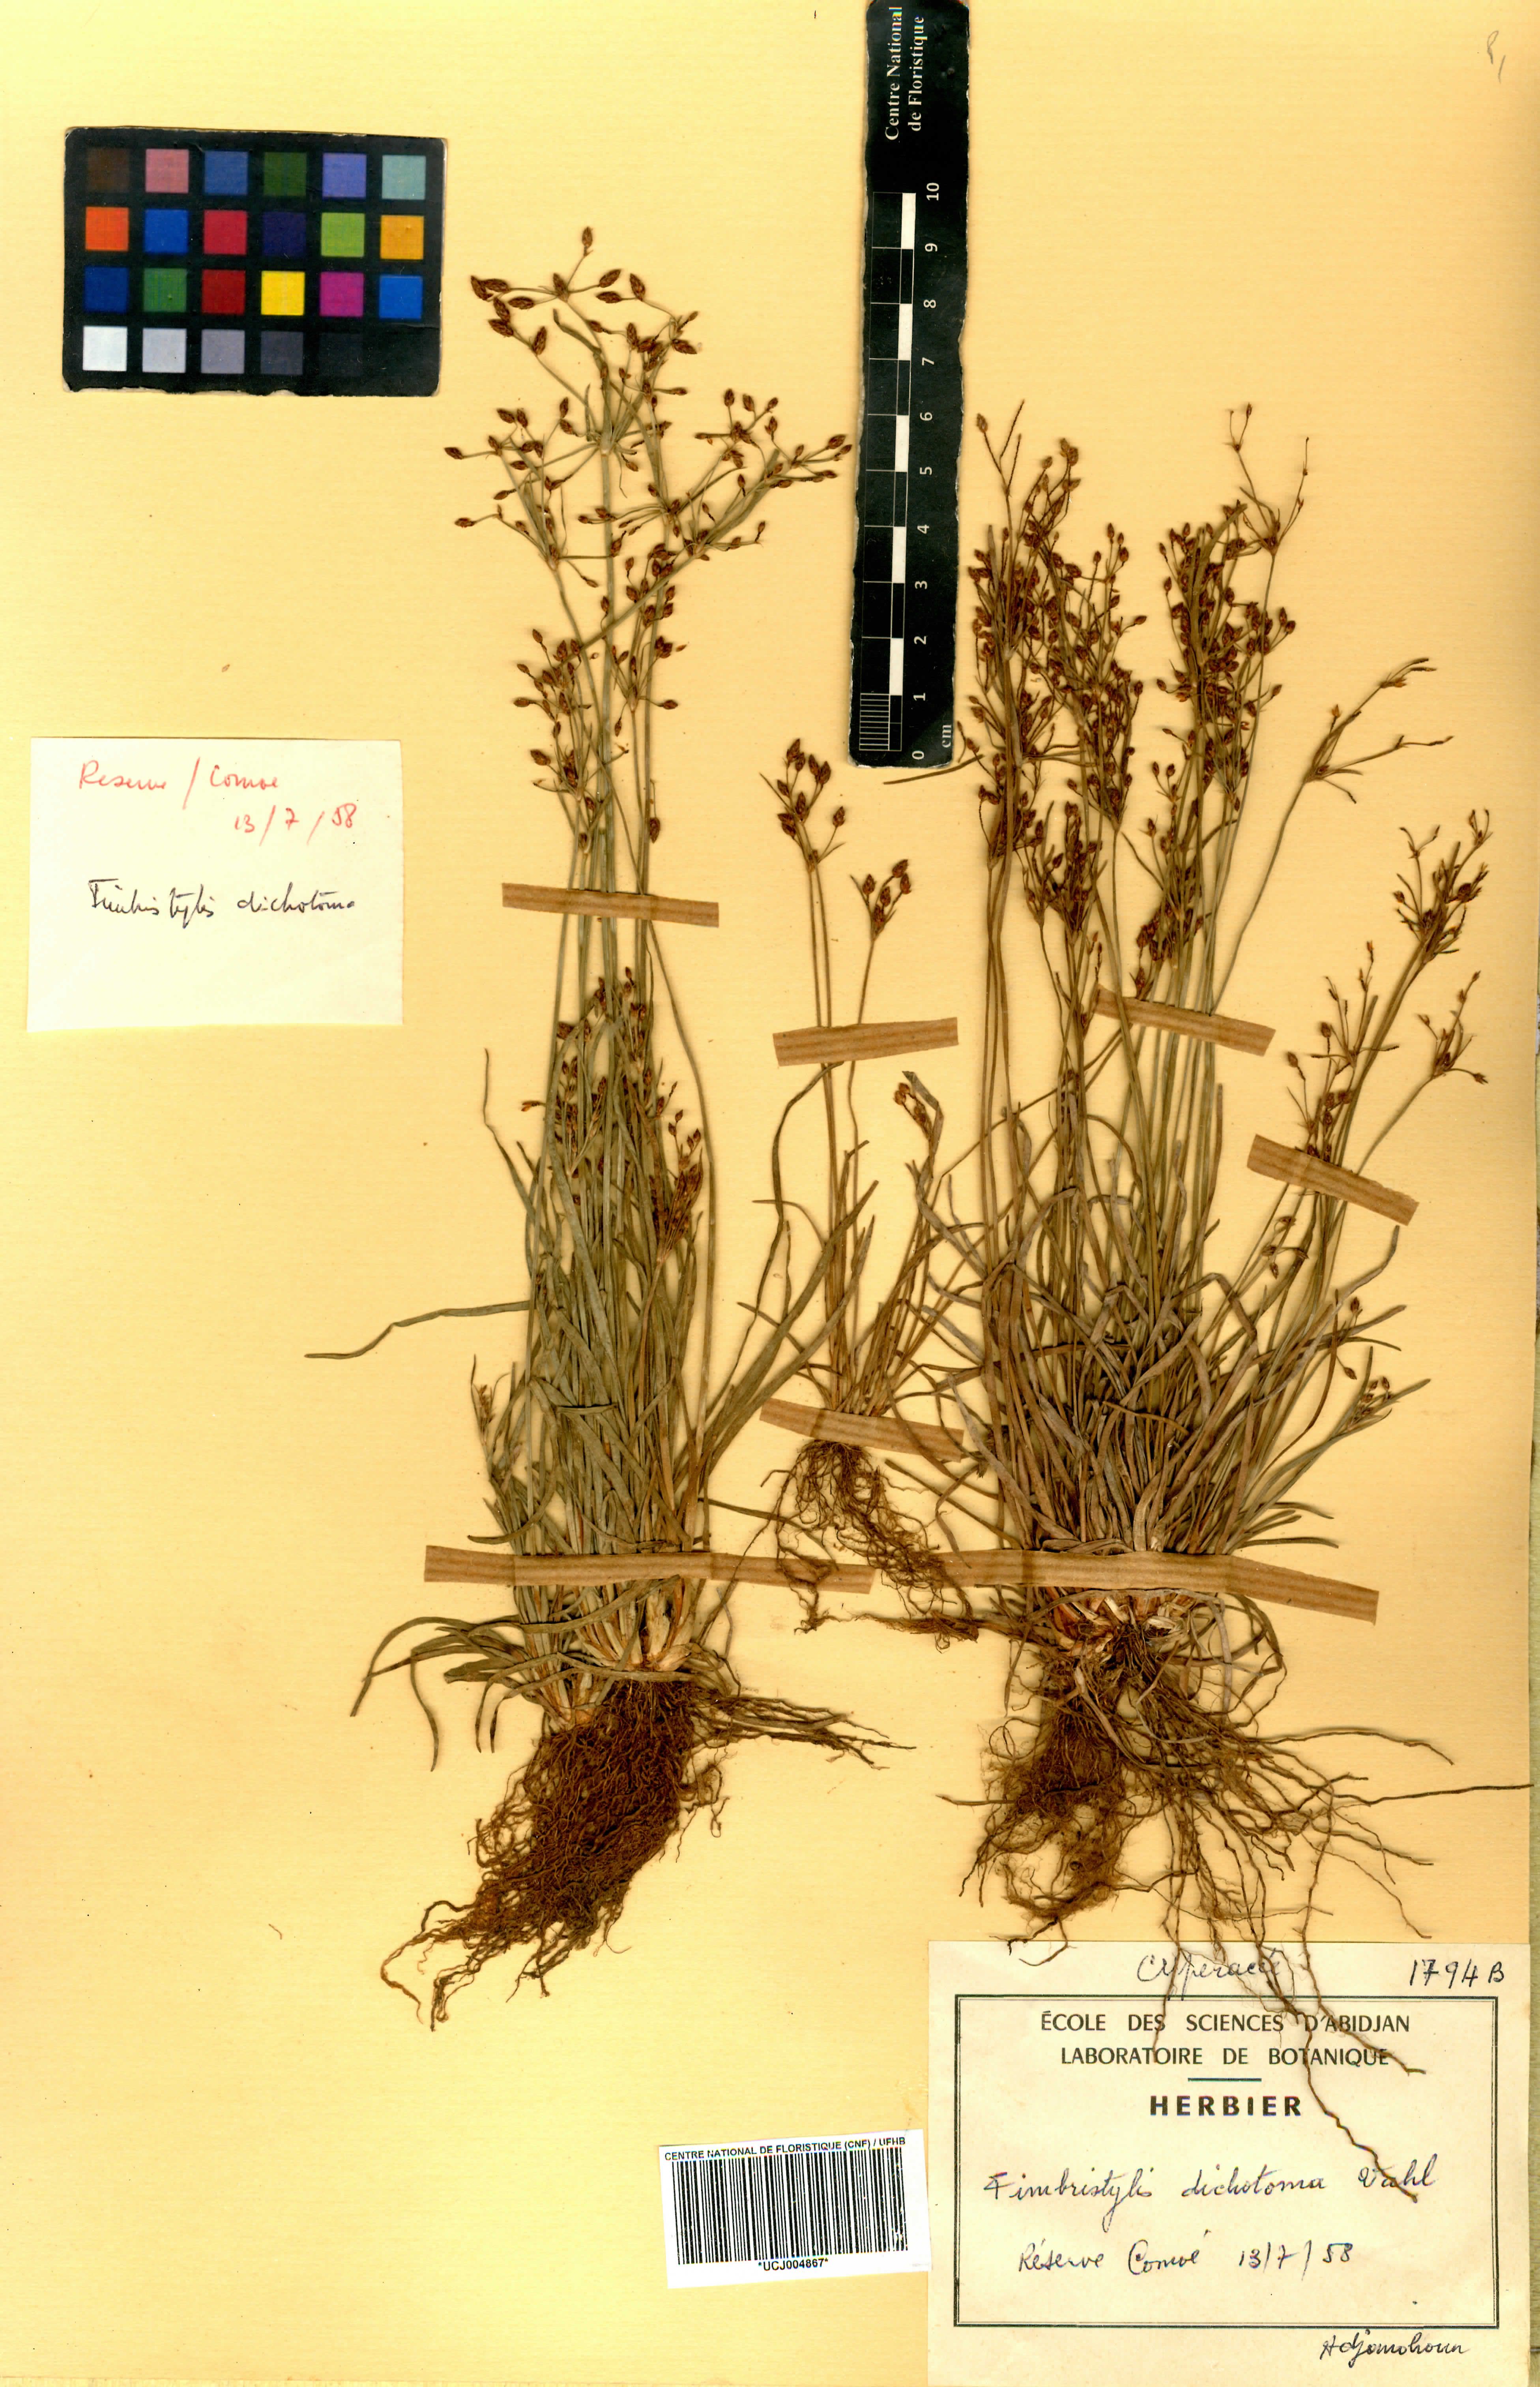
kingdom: Plantae
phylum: Tracheophyta
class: Liliopsida
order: Poales
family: Cyperaceae
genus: Fimbristylis
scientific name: Fimbristylis dichotoma
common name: Forked fimbry
